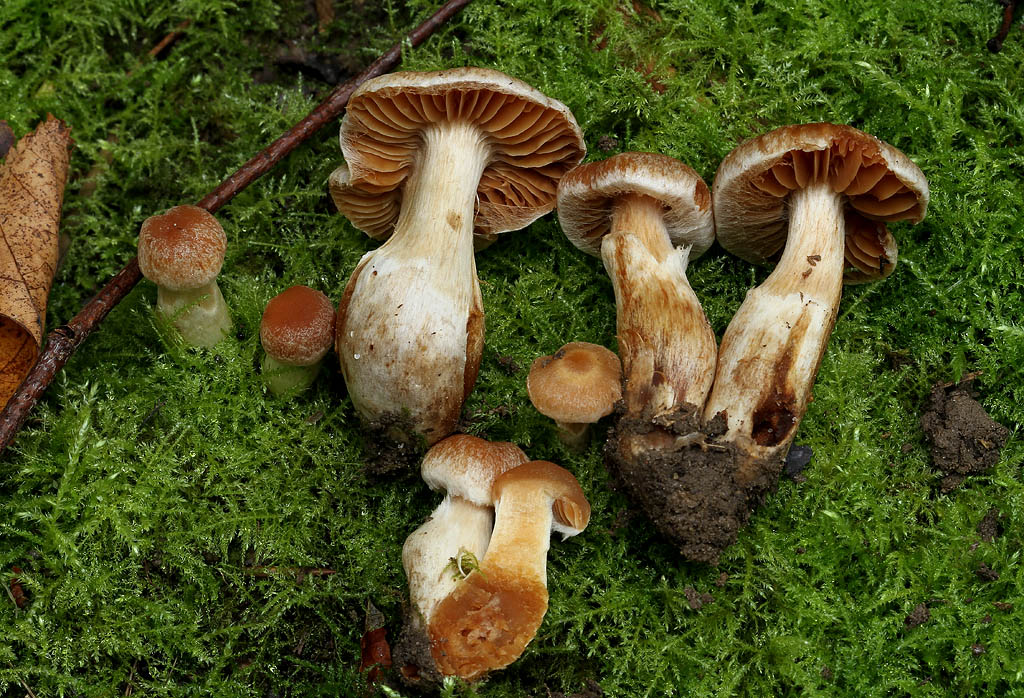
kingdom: Fungi
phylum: Basidiomycota
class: Agaricomycetes
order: Agaricales
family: Cortinariaceae
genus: Cortinarius
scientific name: Cortinarius luridus
